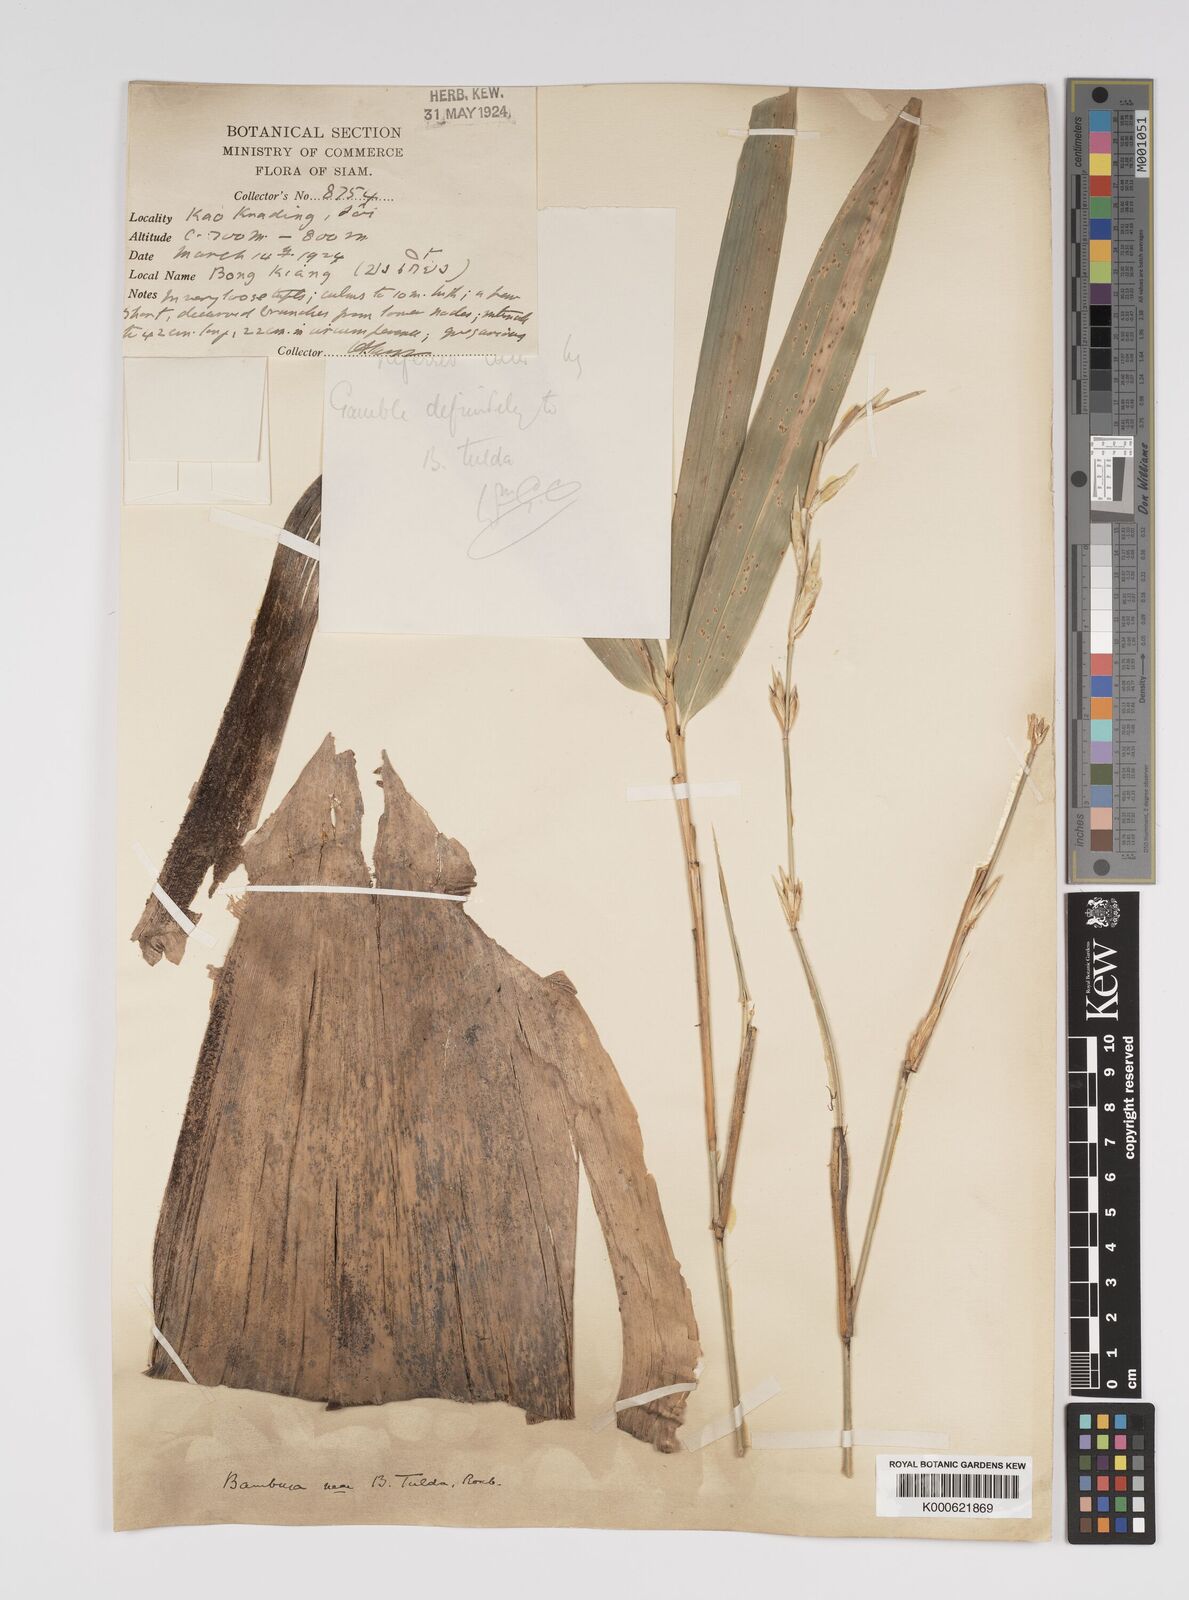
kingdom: Plantae
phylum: Tracheophyta
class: Liliopsida
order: Poales
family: Poaceae
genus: Bambusa
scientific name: Bambusa tulda
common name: Bengal bamboo
